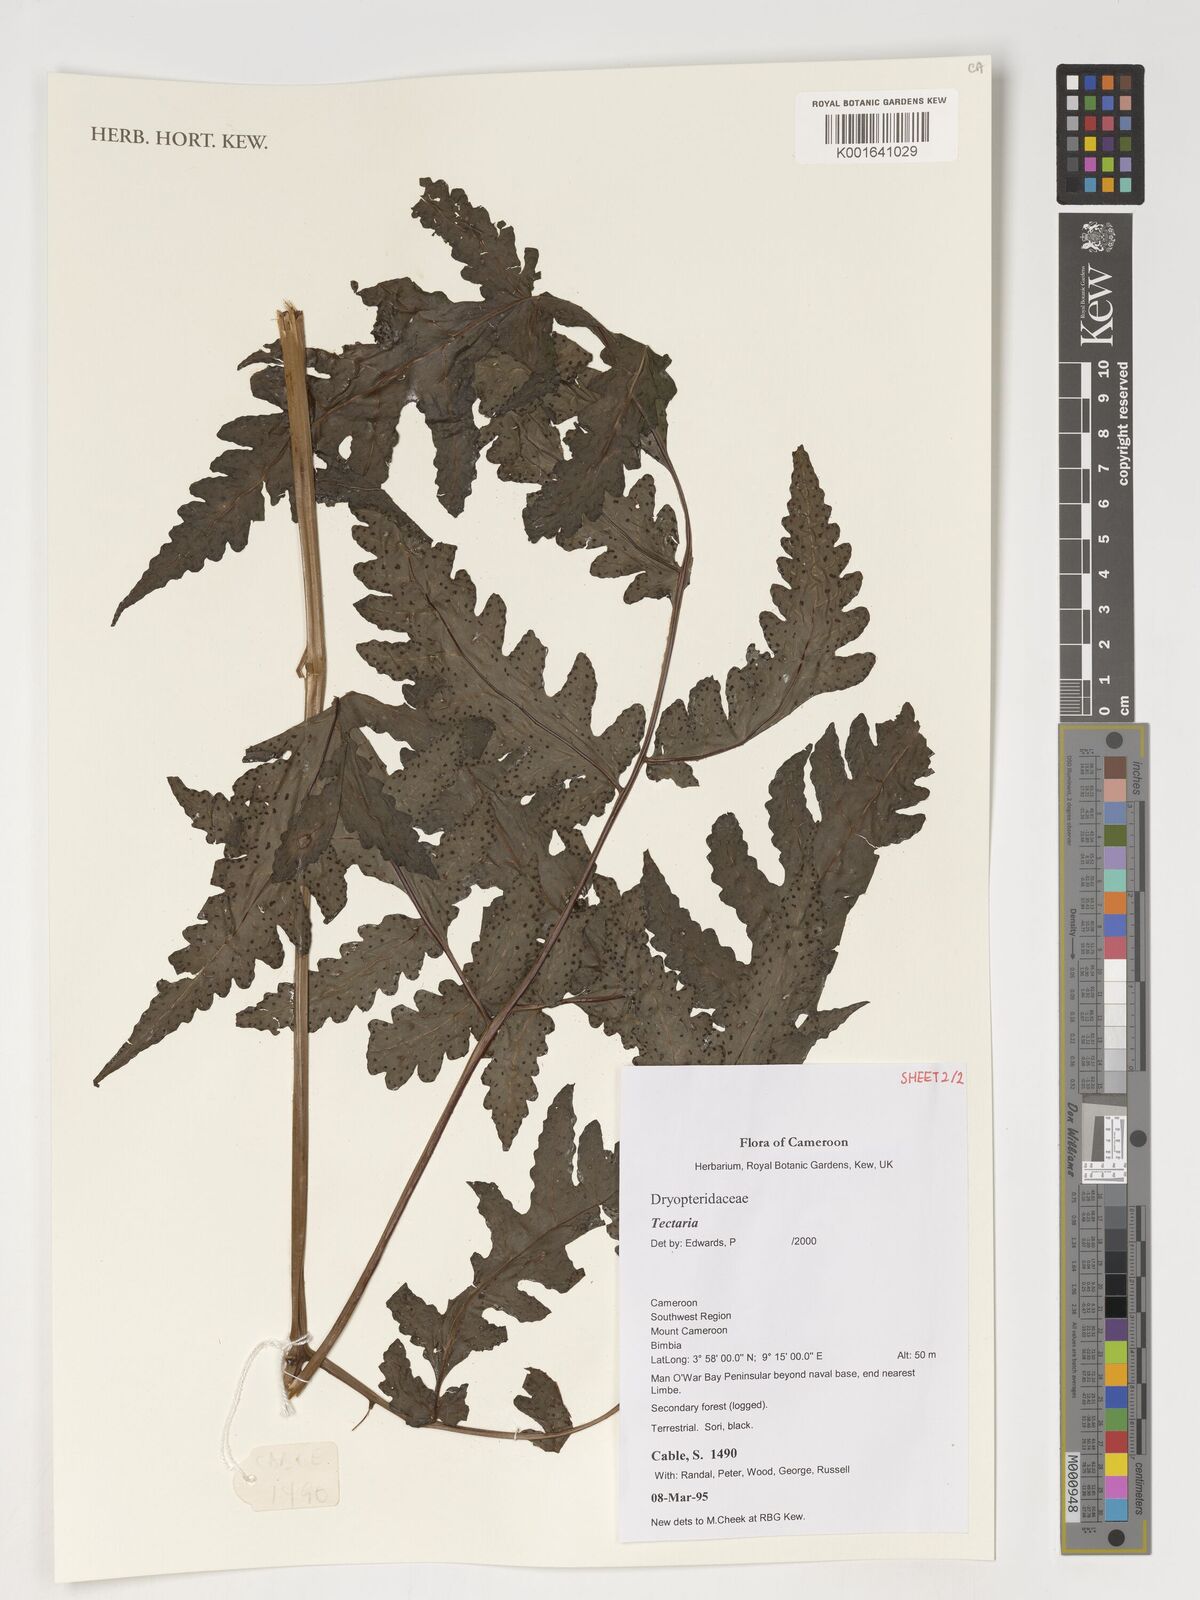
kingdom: Plantae
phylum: Tracheophyta
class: Polypodiopsida
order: Polypodiales
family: Tectariaceae
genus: Tectaria
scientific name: Tectaria
